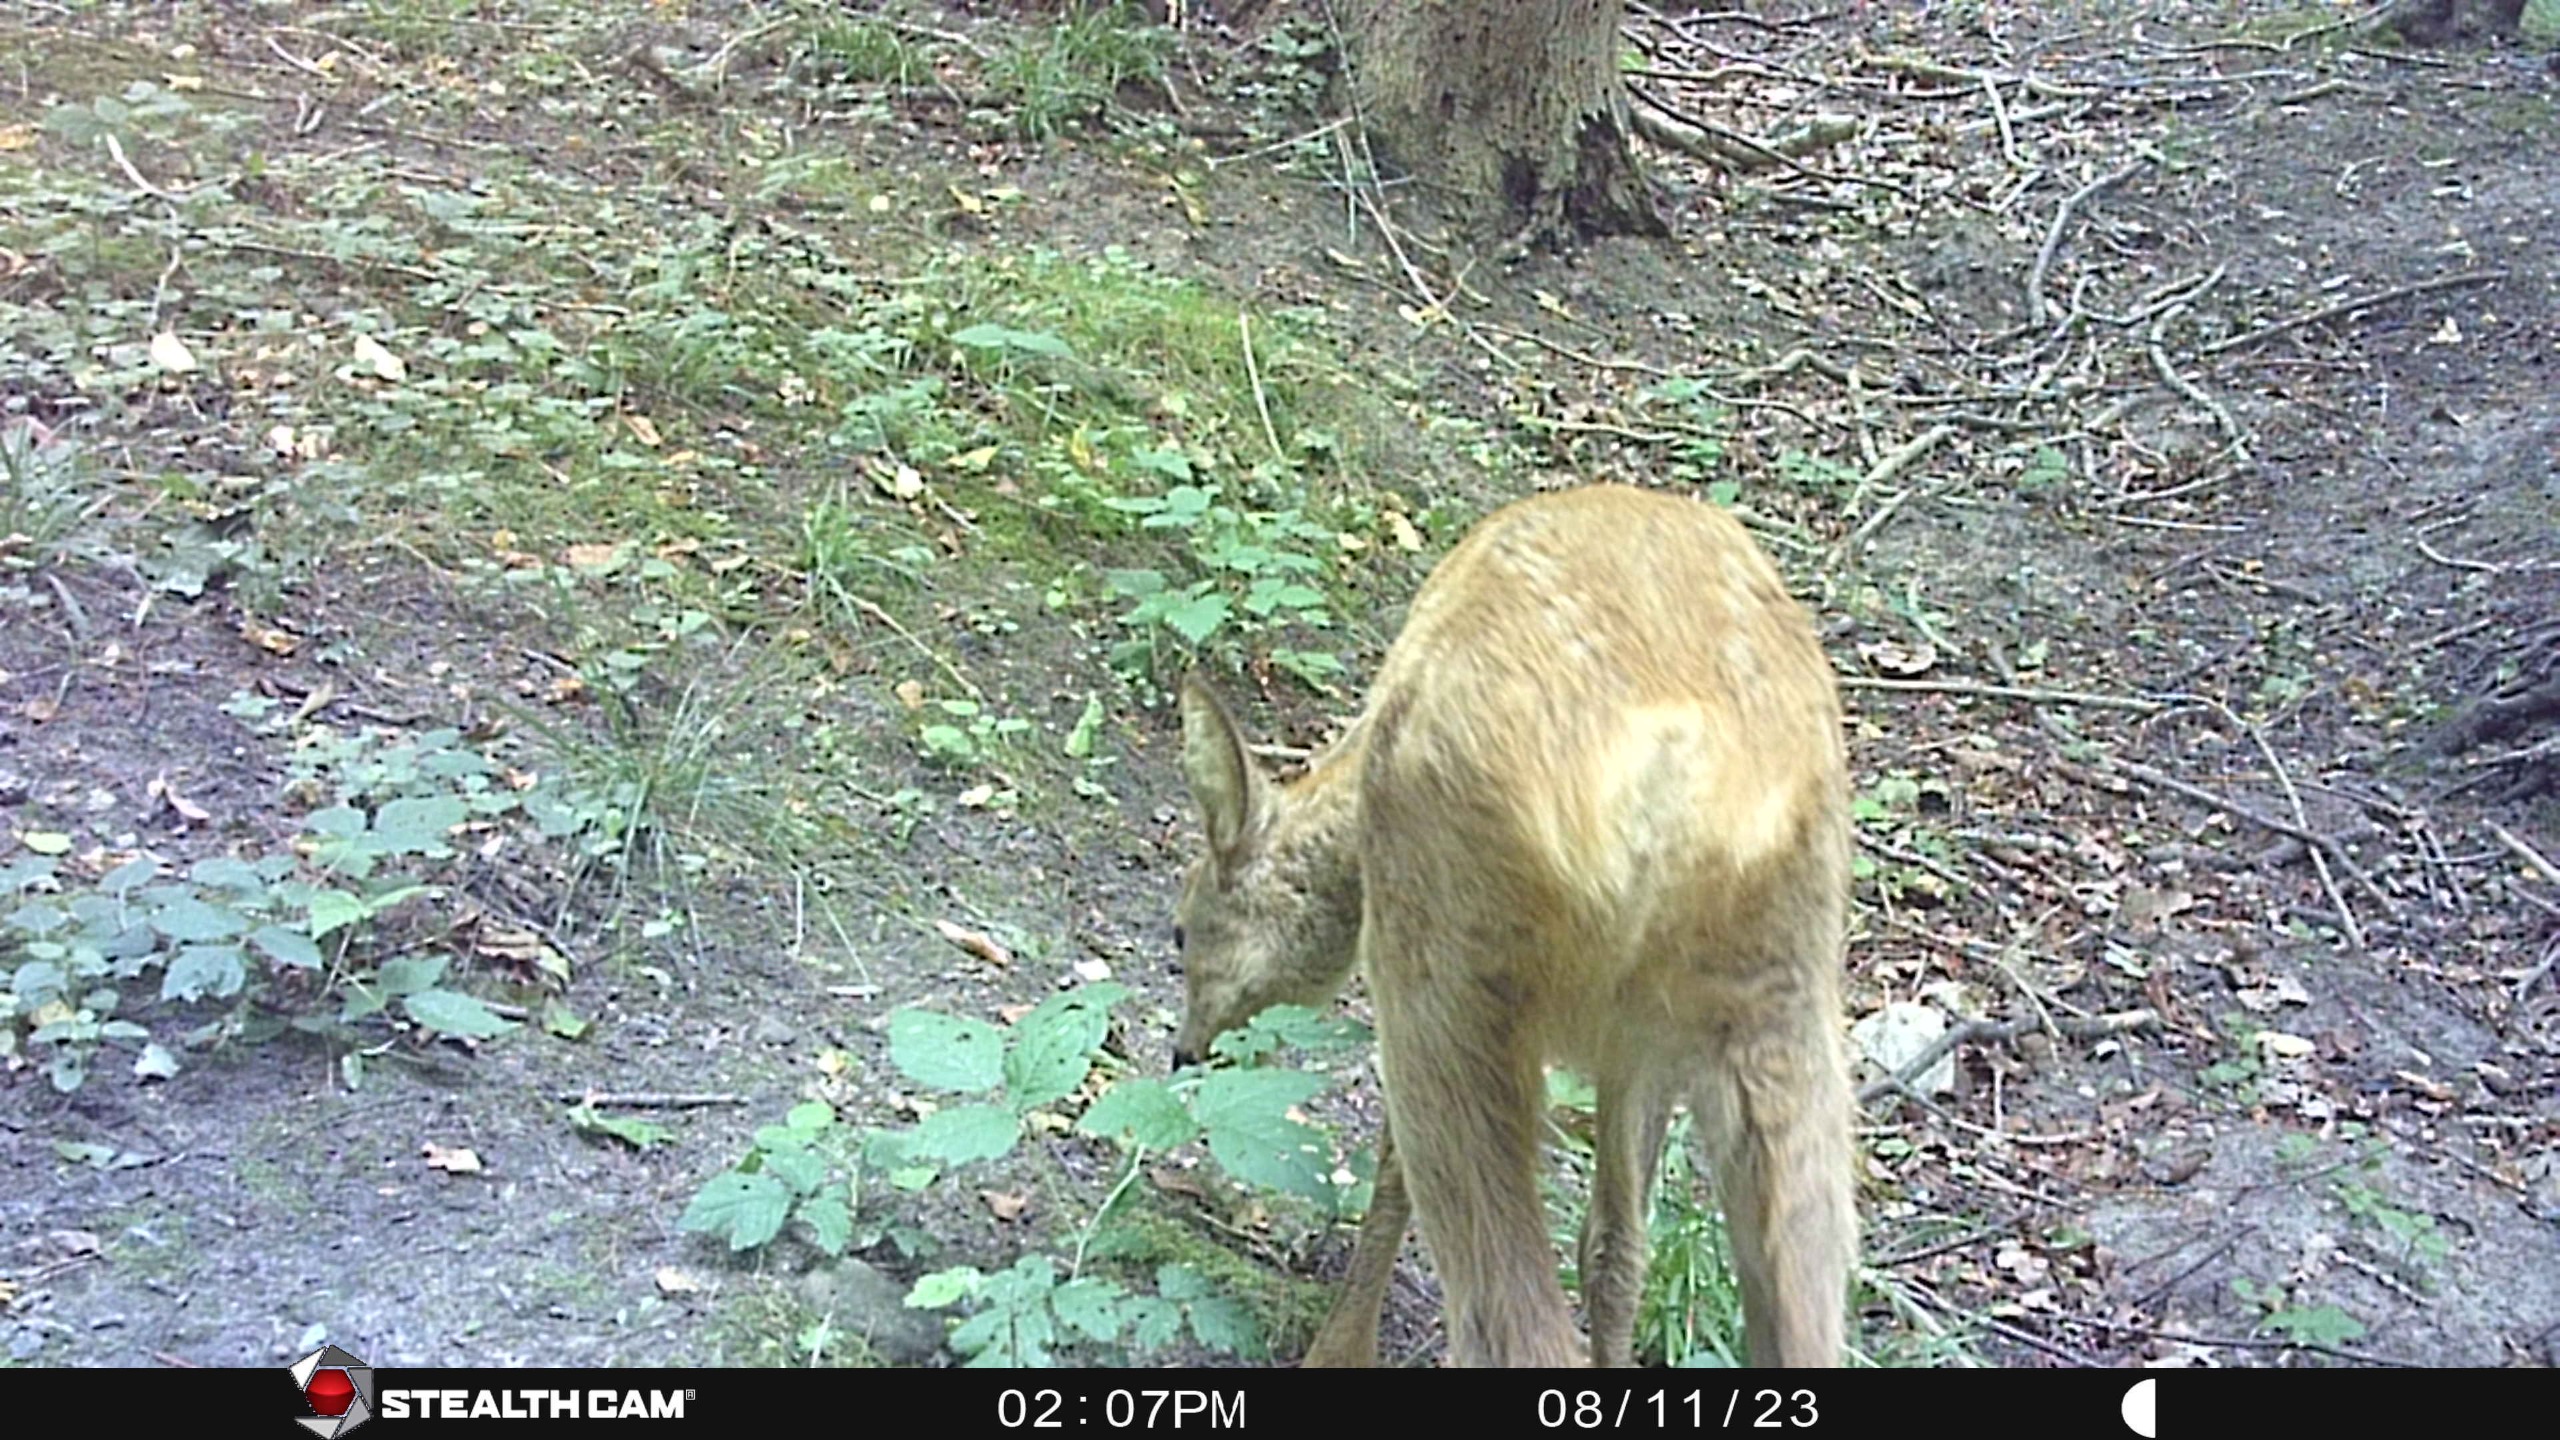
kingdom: Animalia
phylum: Chordata
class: Mammalia
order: Artiodactyla
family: Cervidae
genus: Capreolus
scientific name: Capreolus capreolus
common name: Rådyr
